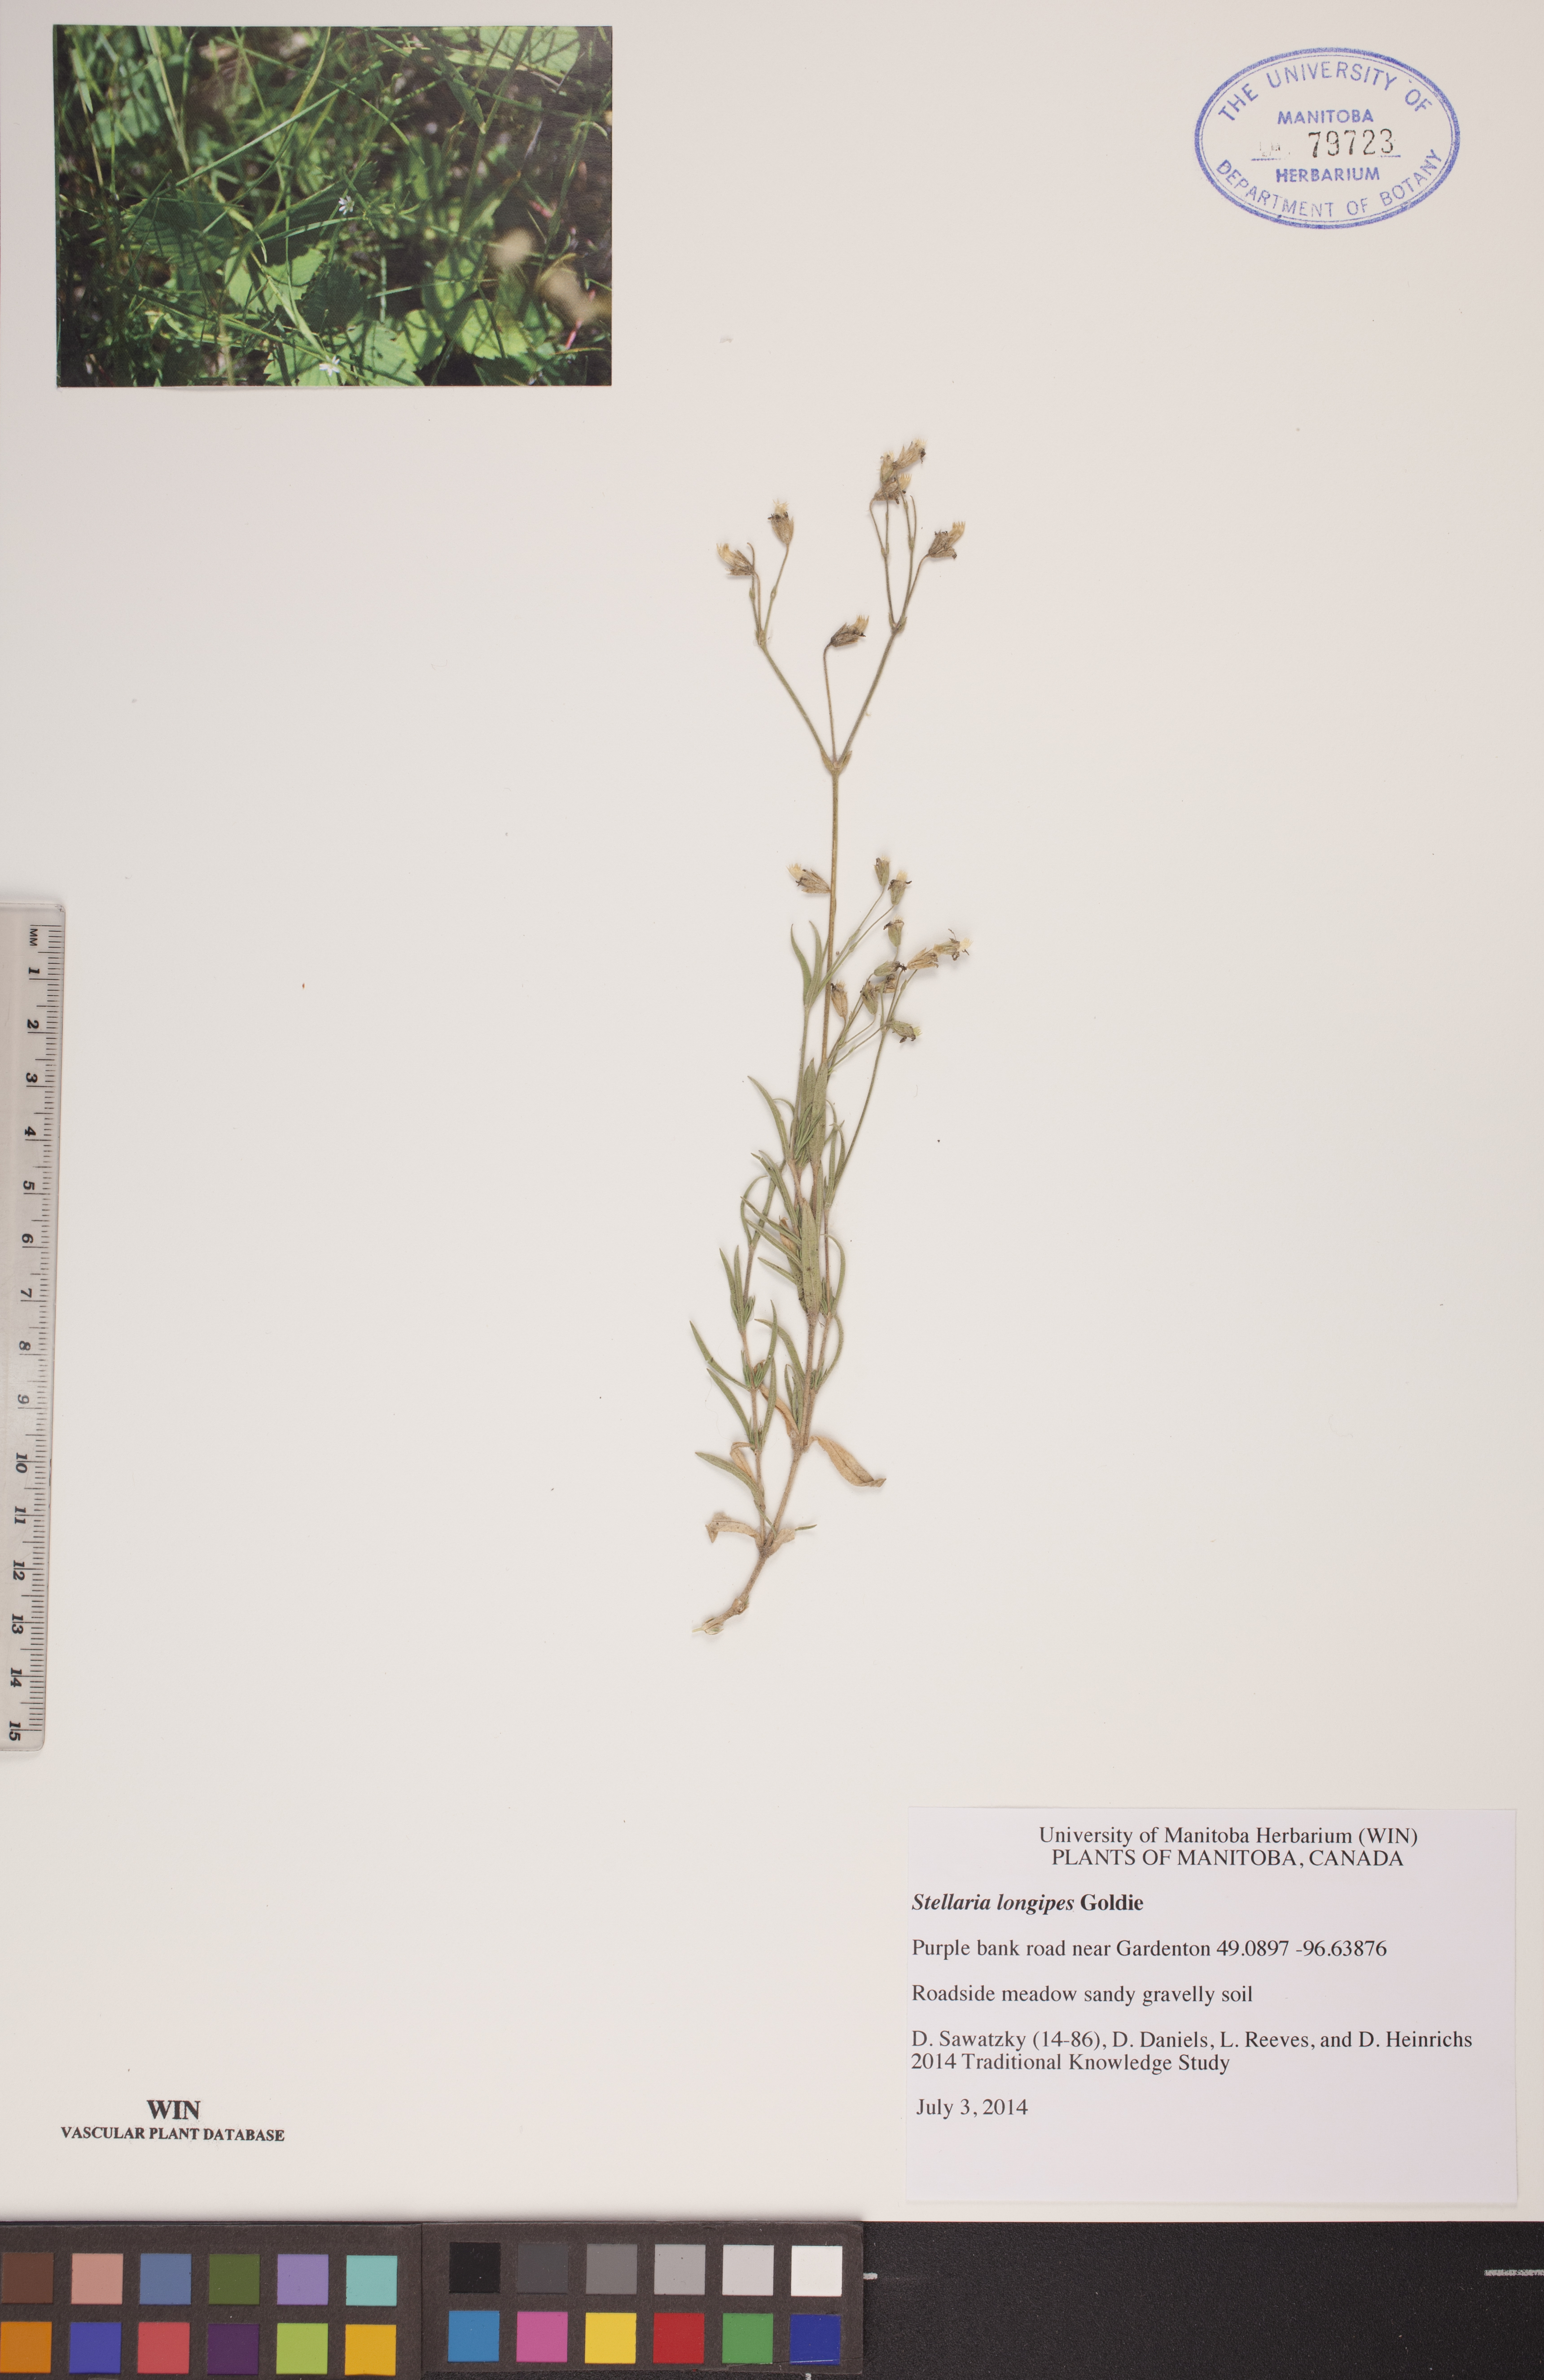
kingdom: Plantae
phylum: Tracheophyta
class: Magnoliopsida
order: Caryophyllales
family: Caryophyllaceae
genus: Stellaria
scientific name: Stellaria longipes
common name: Goldie's starwort
